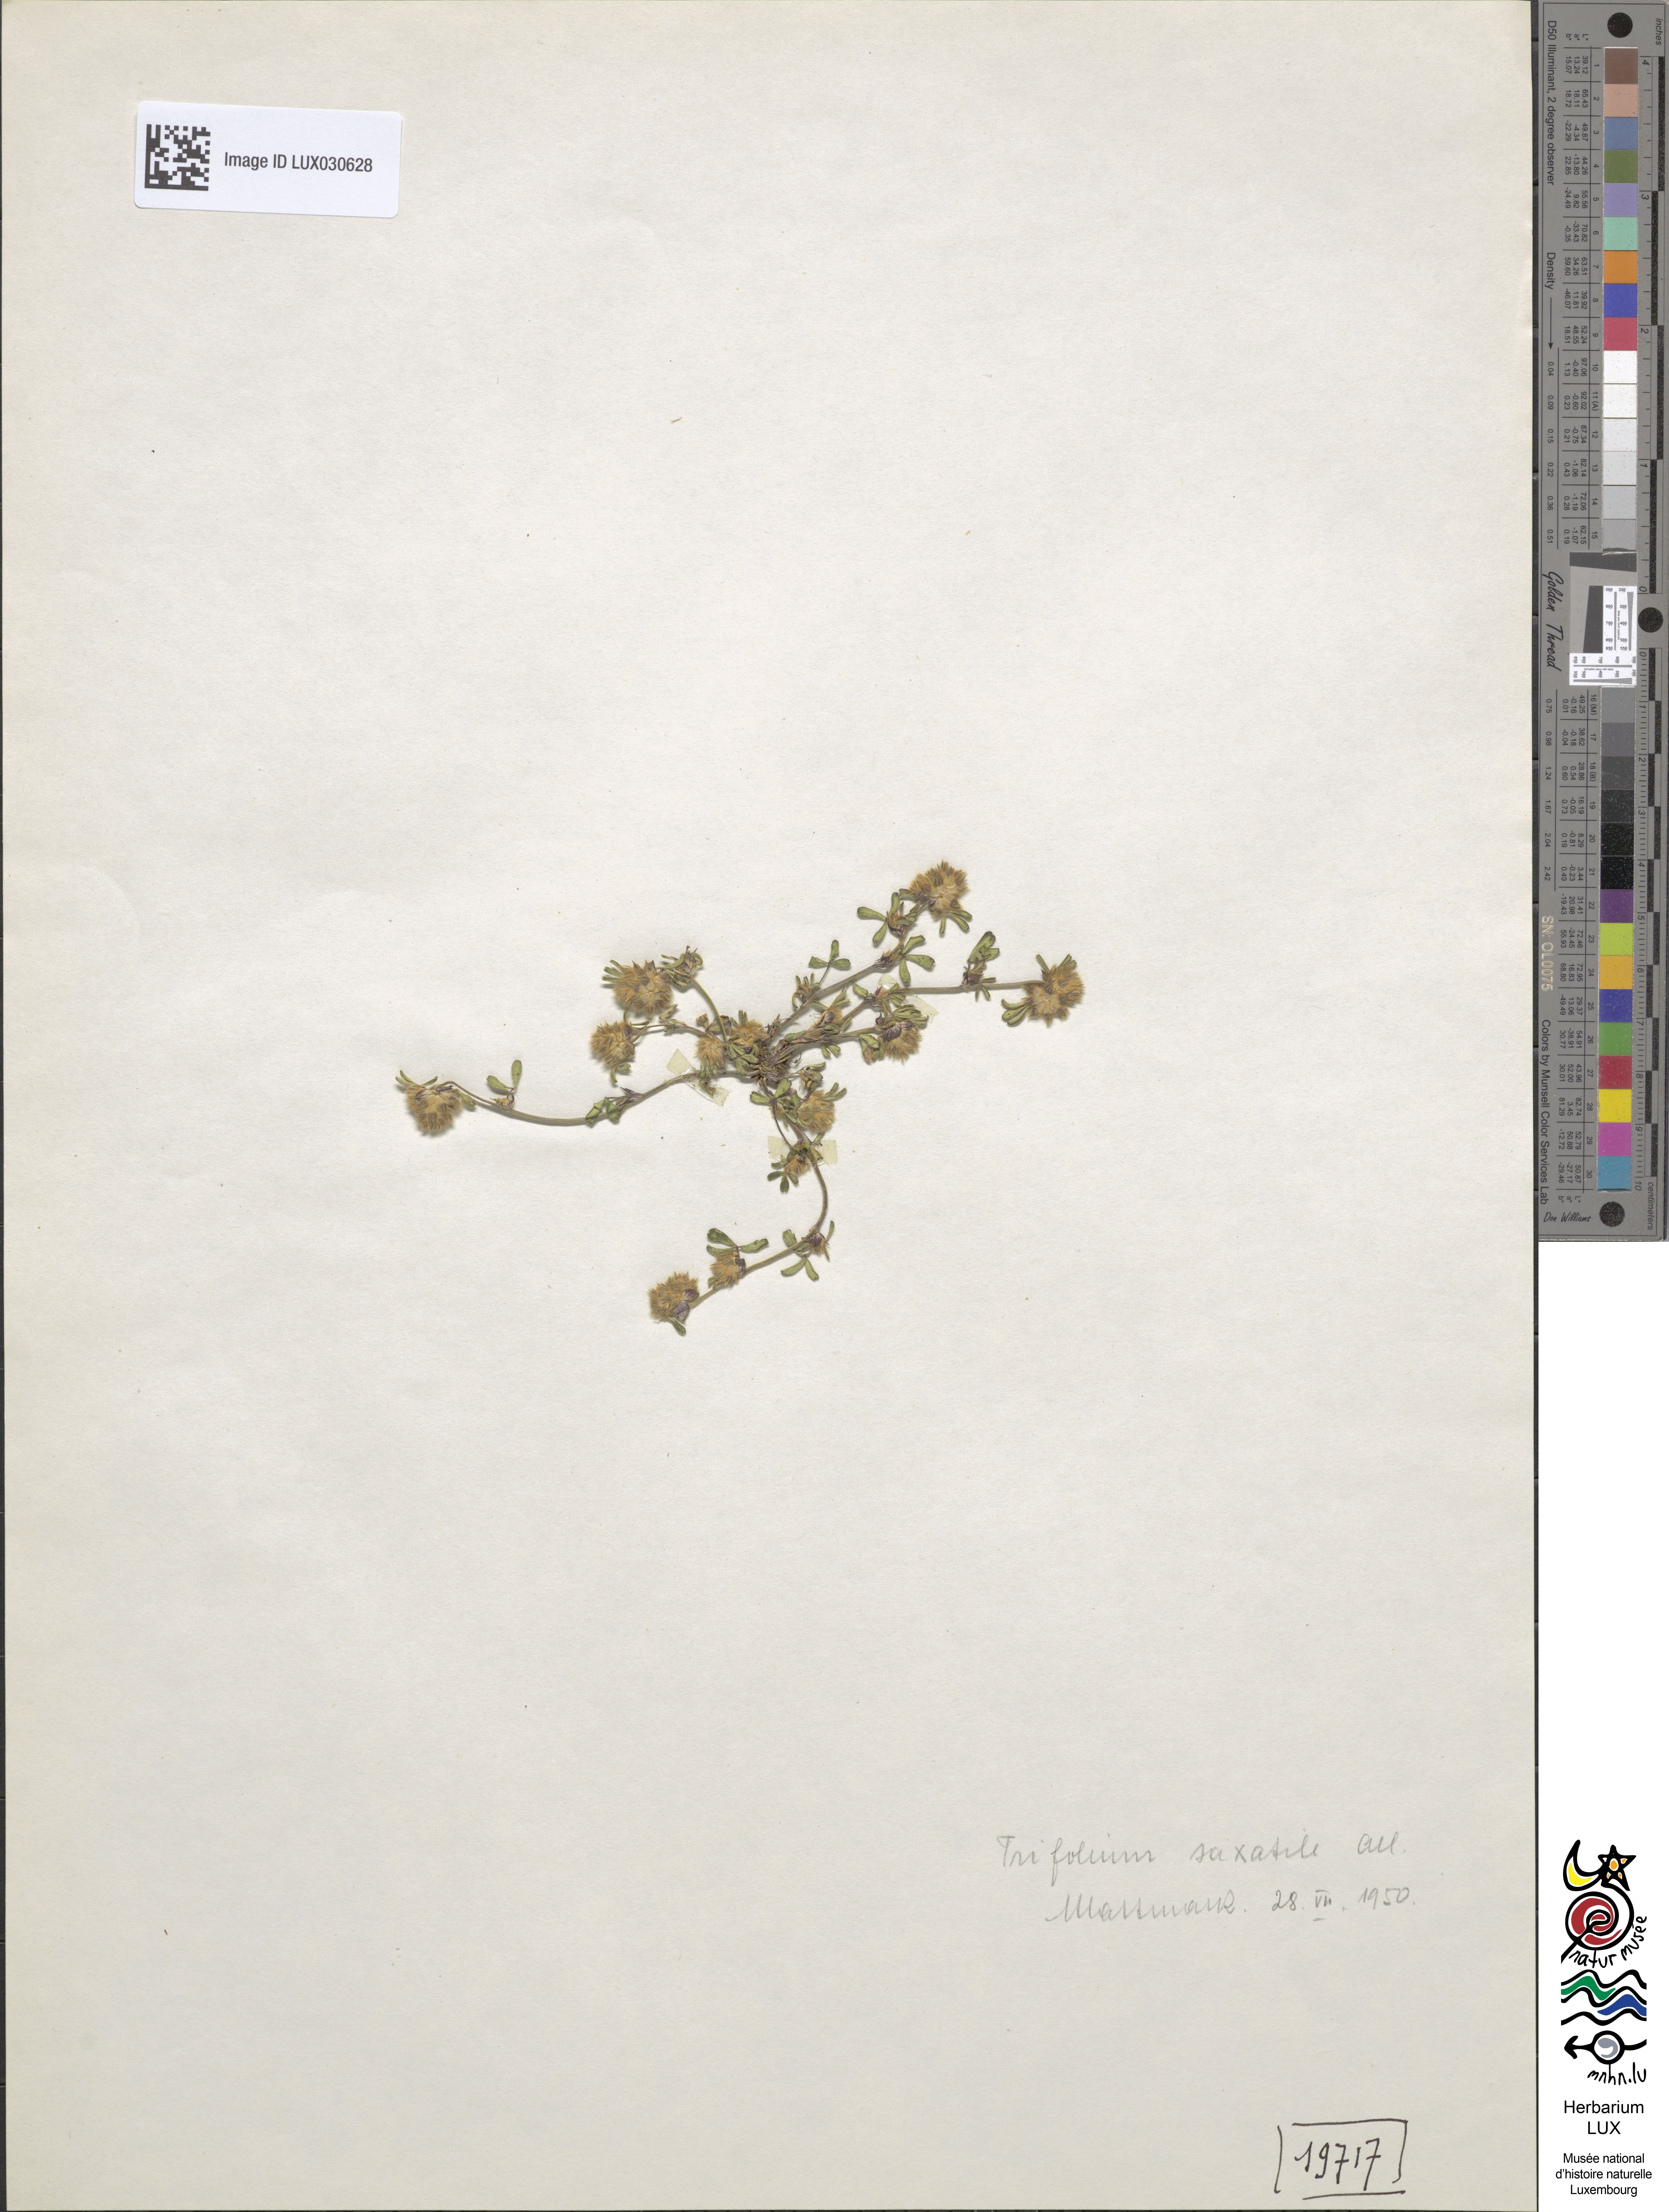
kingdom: Plantae
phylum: Tracheophyta
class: Magnoliopsida
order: Fabales
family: Fabaceae
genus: Trifolium
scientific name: Trifolium saxatile
